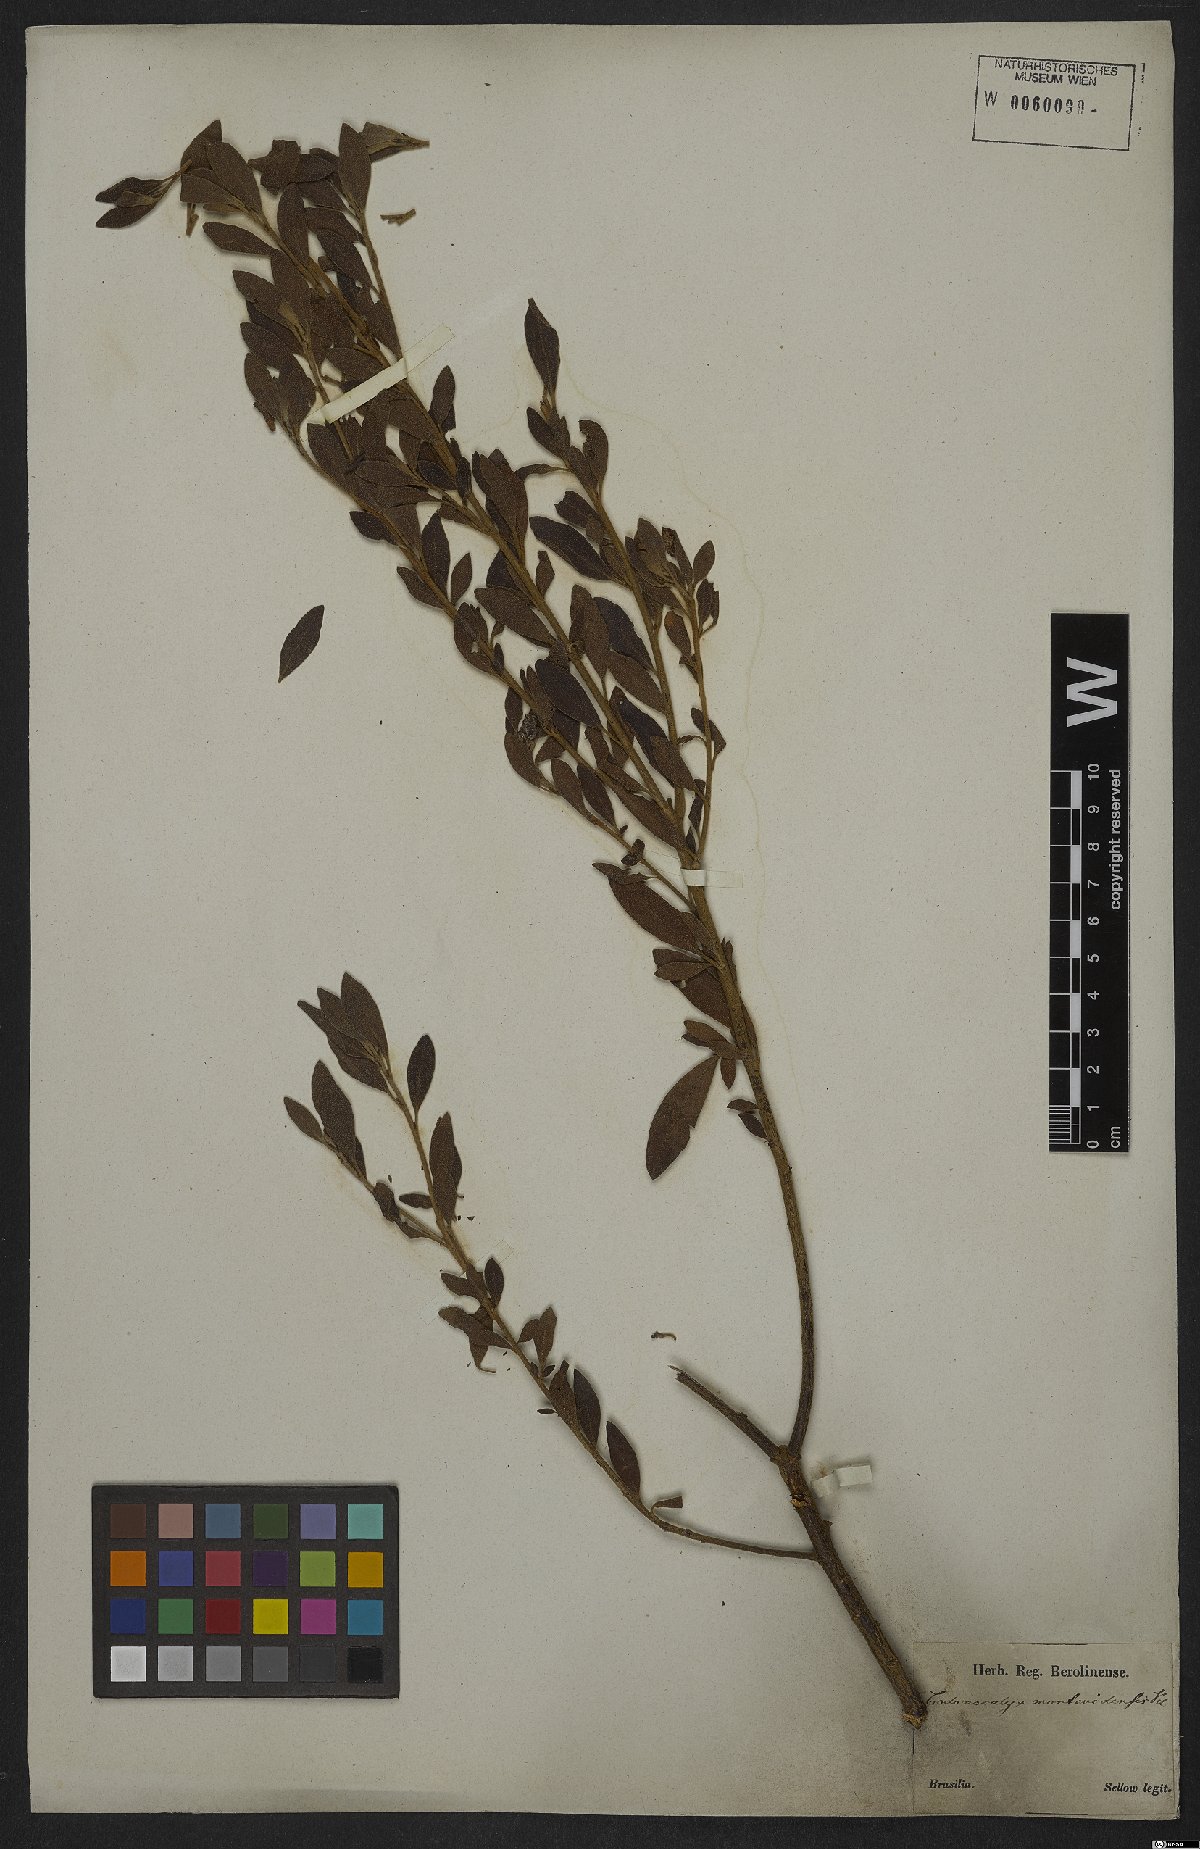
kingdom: Plantae
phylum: Tracheophyta
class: Magnoliopsida
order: Malpighiales
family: Euphorbiaceae
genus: Croton
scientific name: Croton montevidensis
